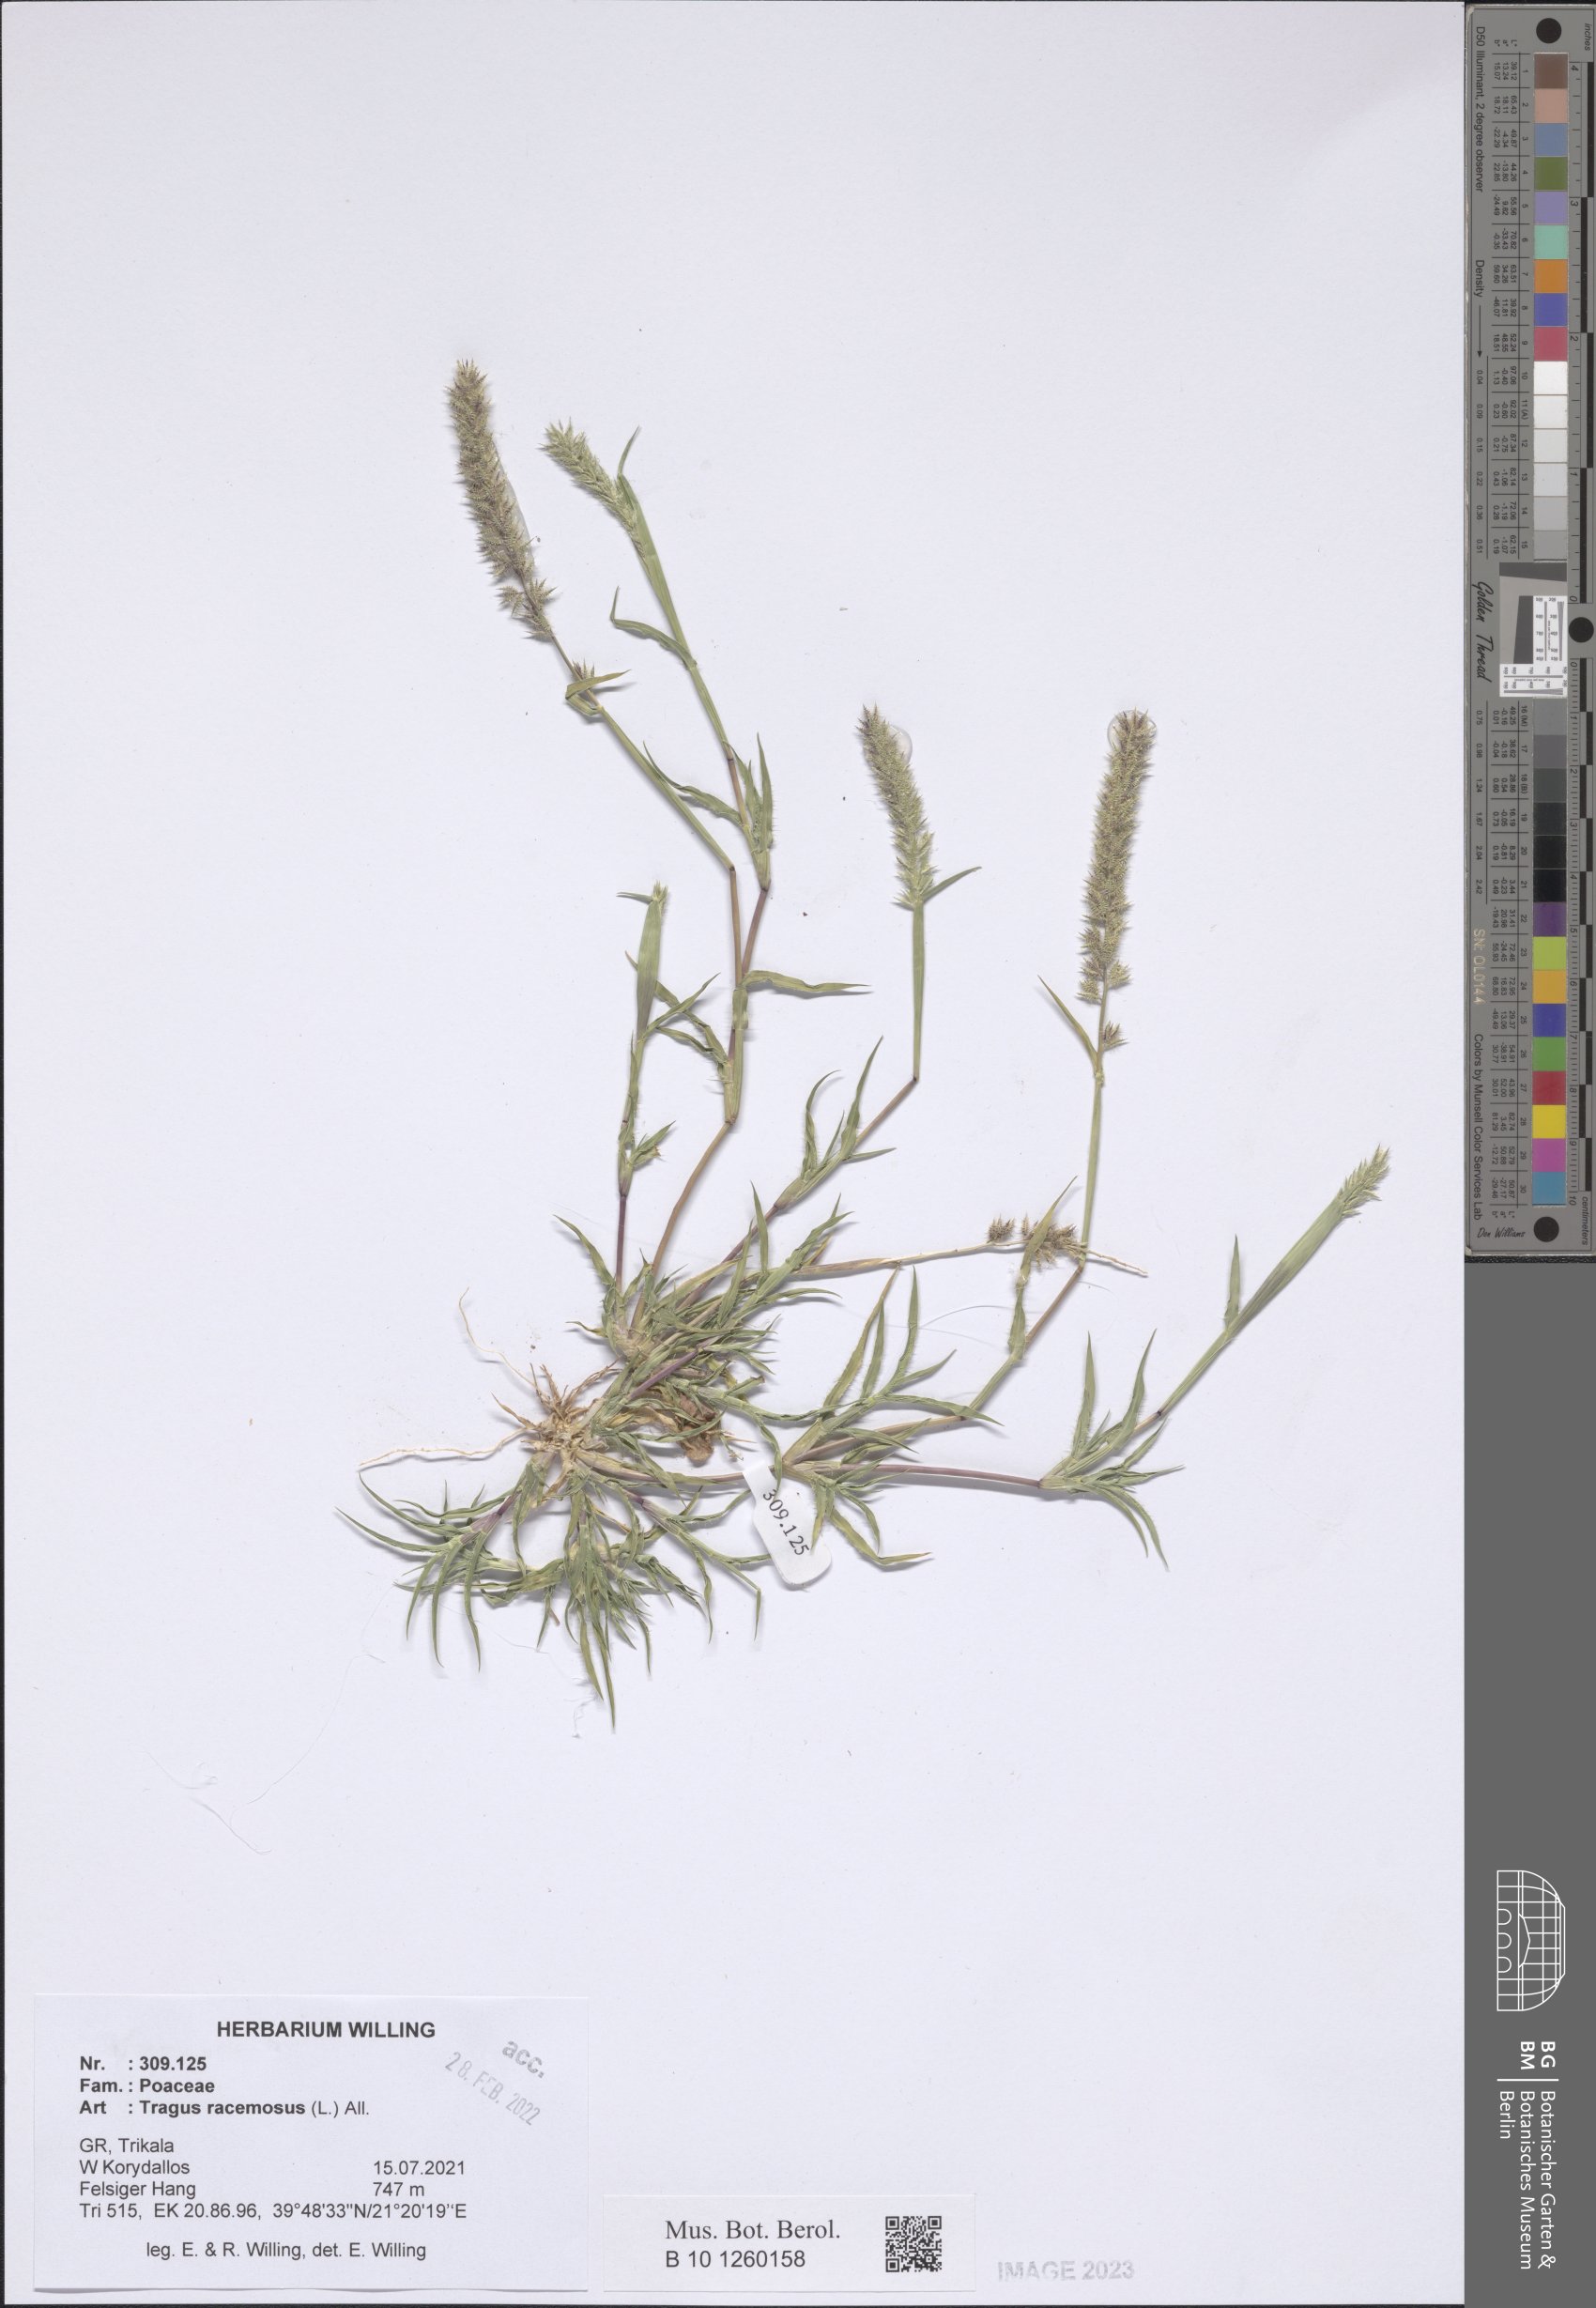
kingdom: Plantae
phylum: Tracheophyta
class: Liliopsida
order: Poales
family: Poaceae
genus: Tragus
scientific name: Tragus racemosus
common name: European bur-grass
